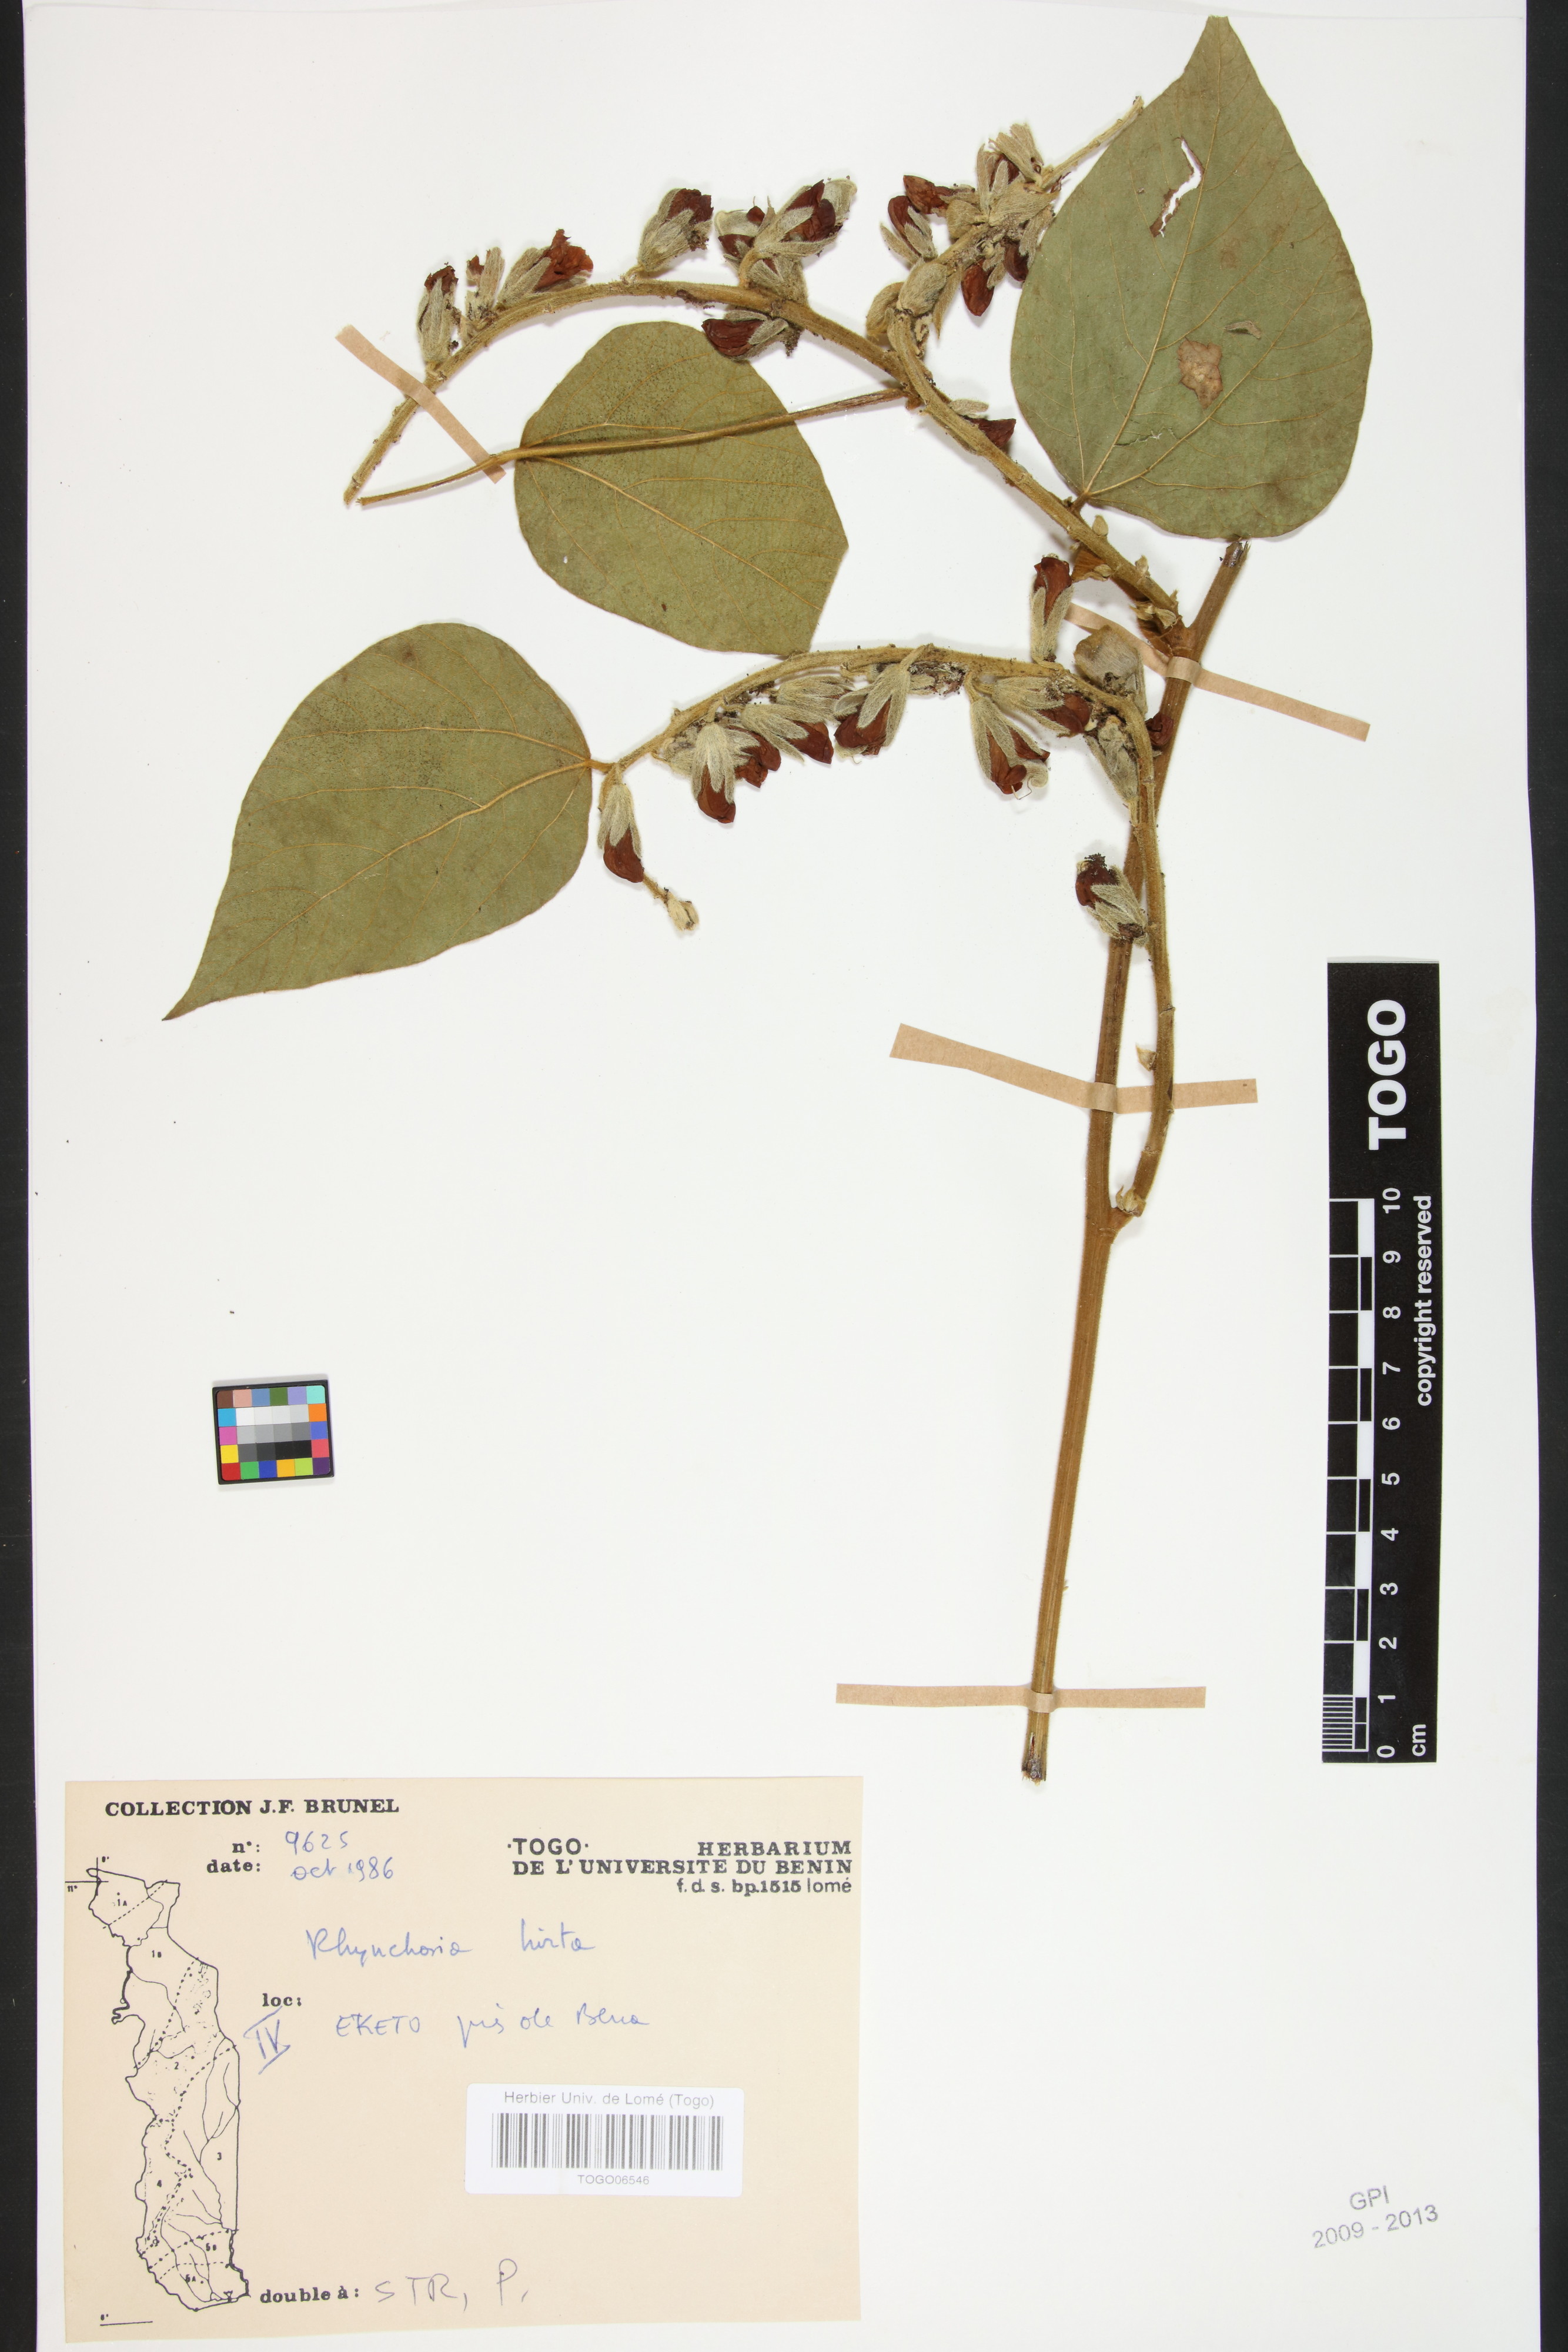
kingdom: Plantae
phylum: Tracheophyta
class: Magnoliopsida
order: Fabales
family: Fabaceae
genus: Rhynchosia
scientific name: Rhynchosia hirta
